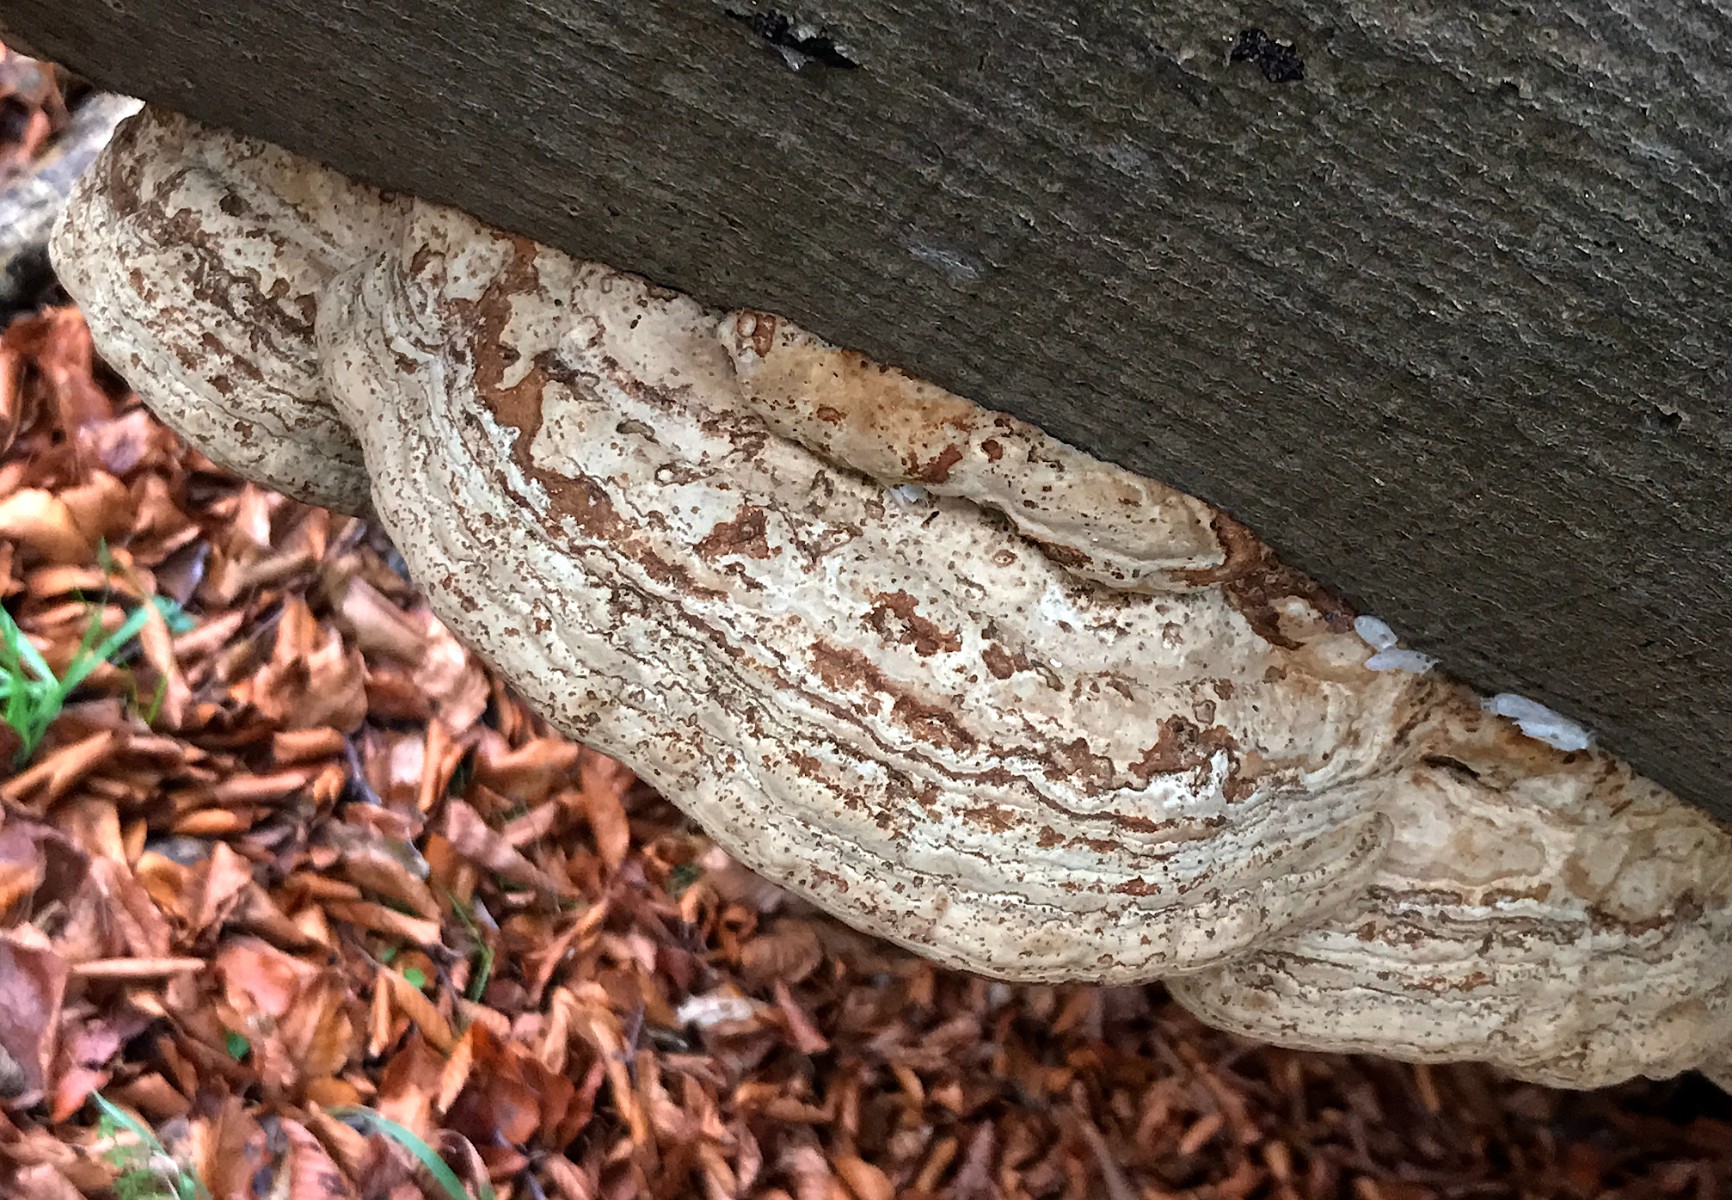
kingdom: Fungi
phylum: Basidiomycota
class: Agaricomycetes
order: Polyporales
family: Polyporaceae
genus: Fomes
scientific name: Fomes fomentarius
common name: tøndersvamp
